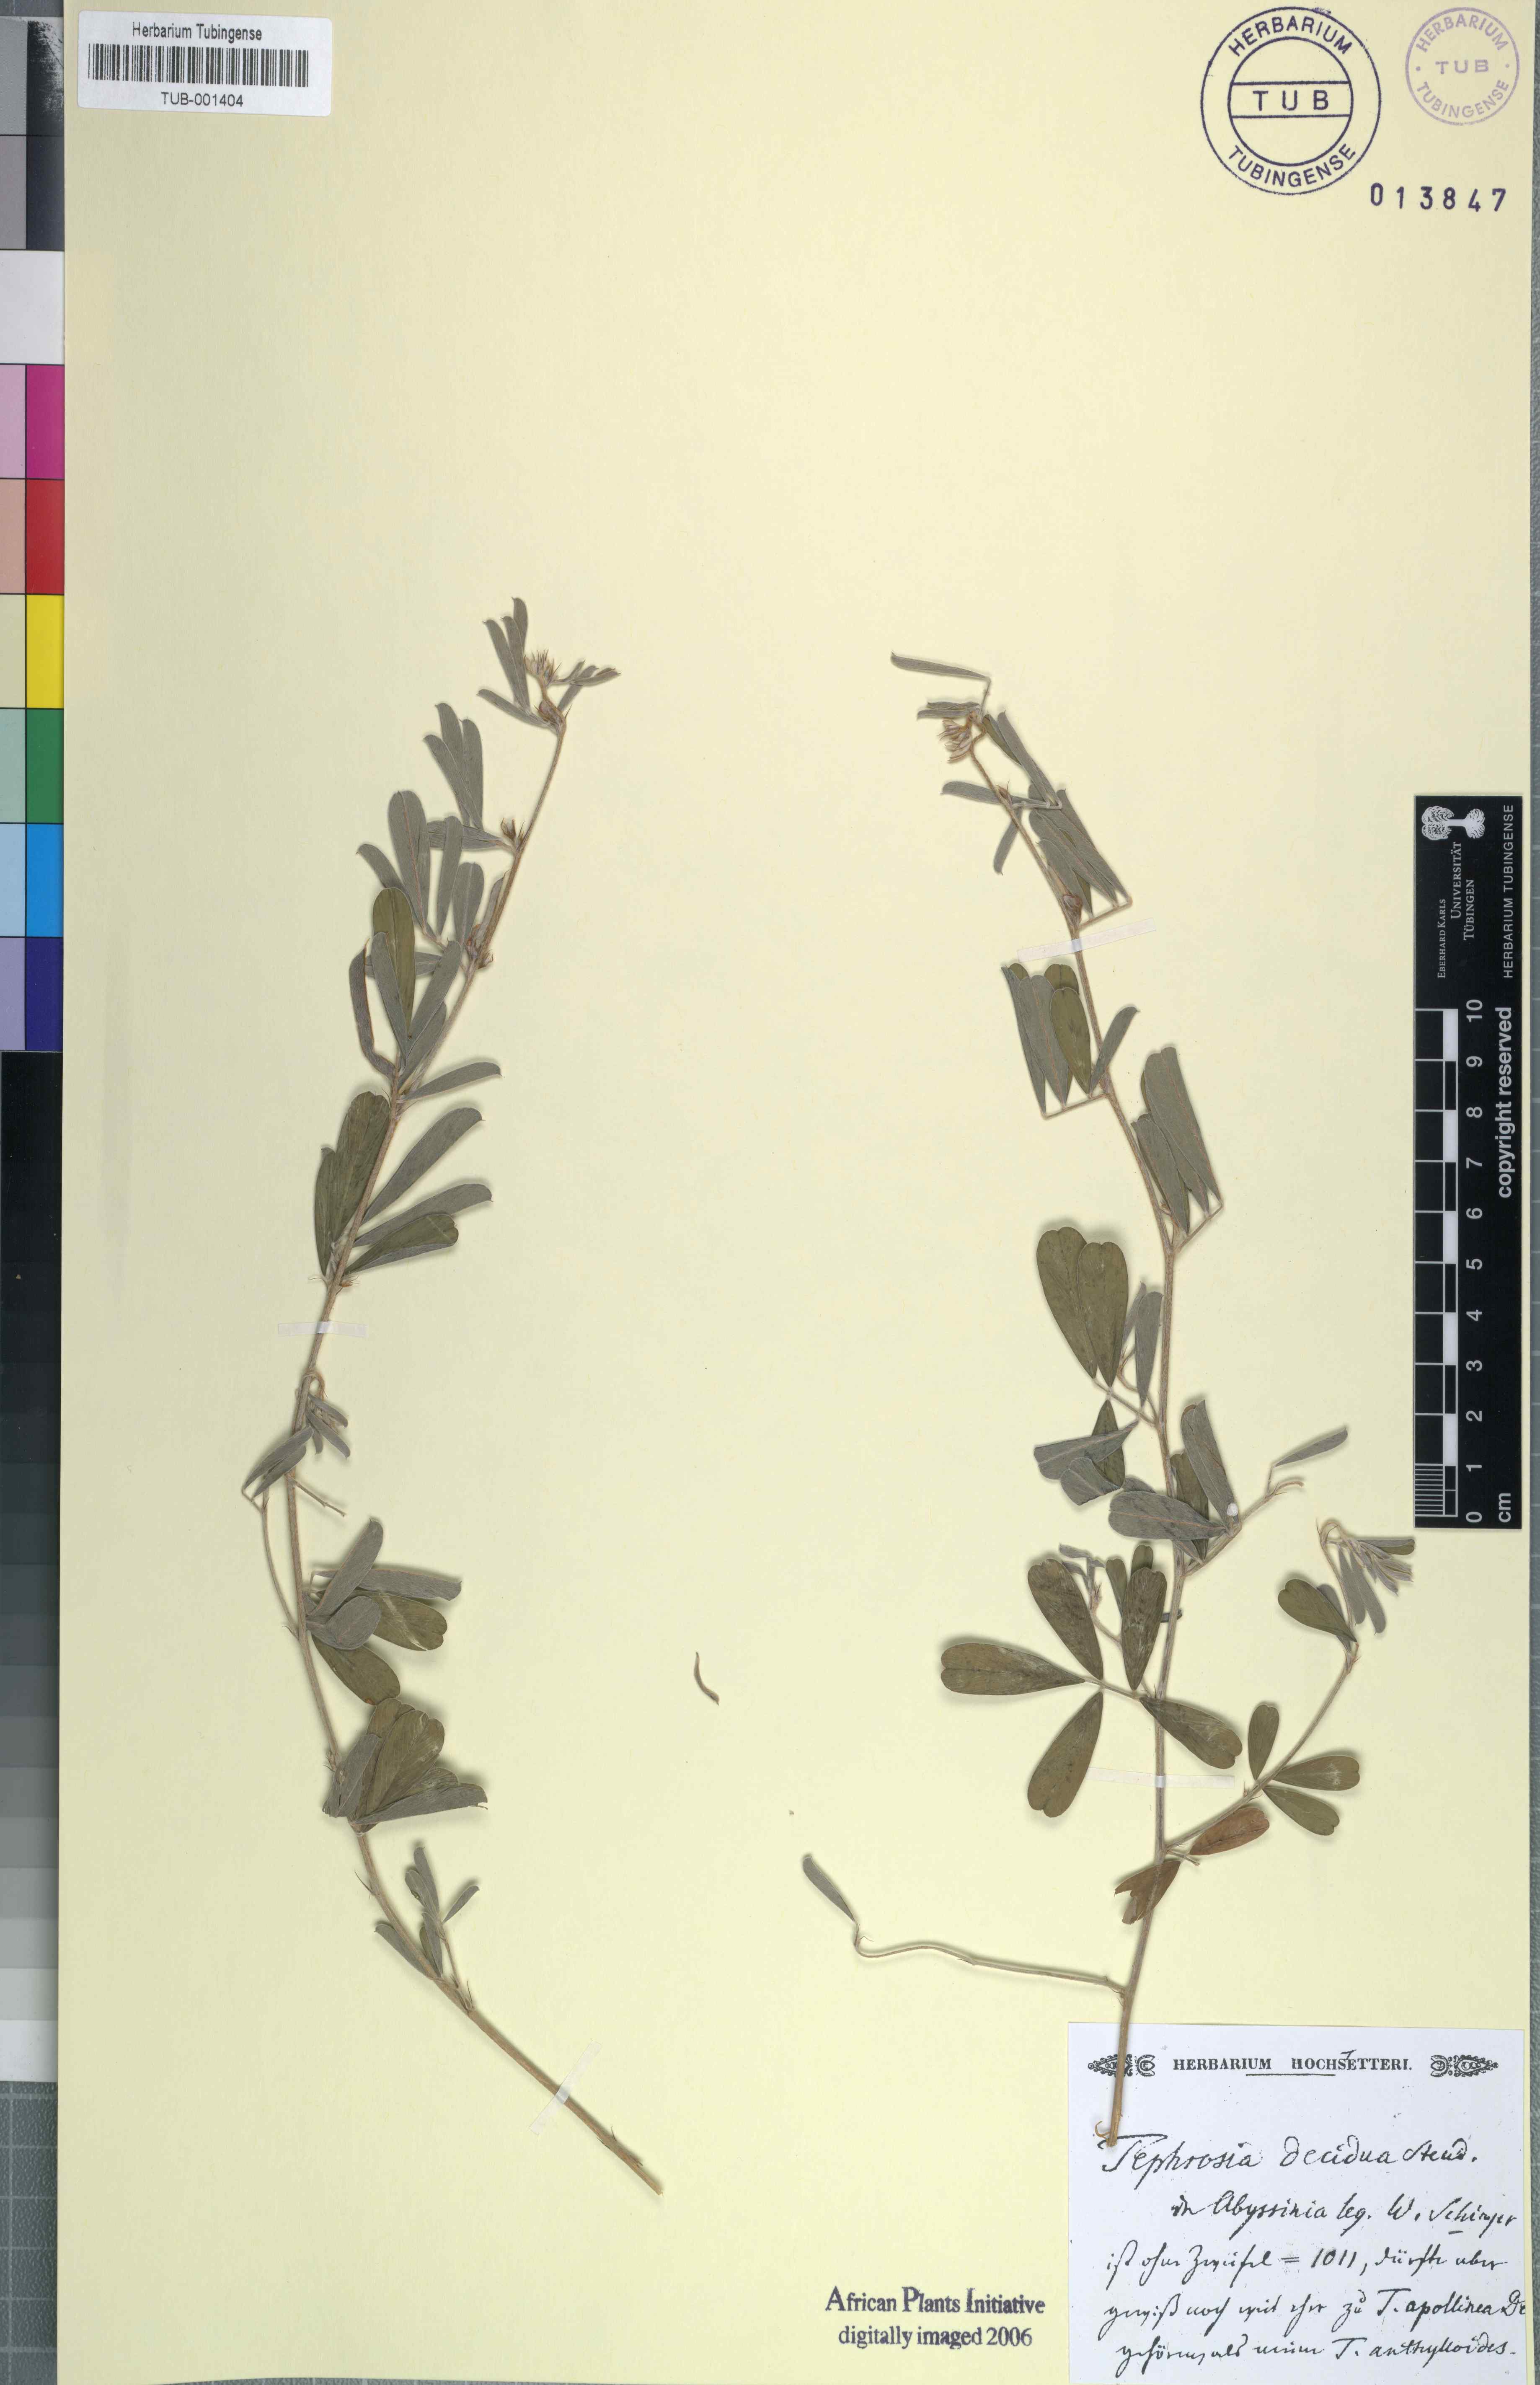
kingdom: Plantae
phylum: Tracheophyta
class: Magnoliopsida
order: Fabales
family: Fabaceae
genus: Tephrosia
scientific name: Tephrosia subtriflora
